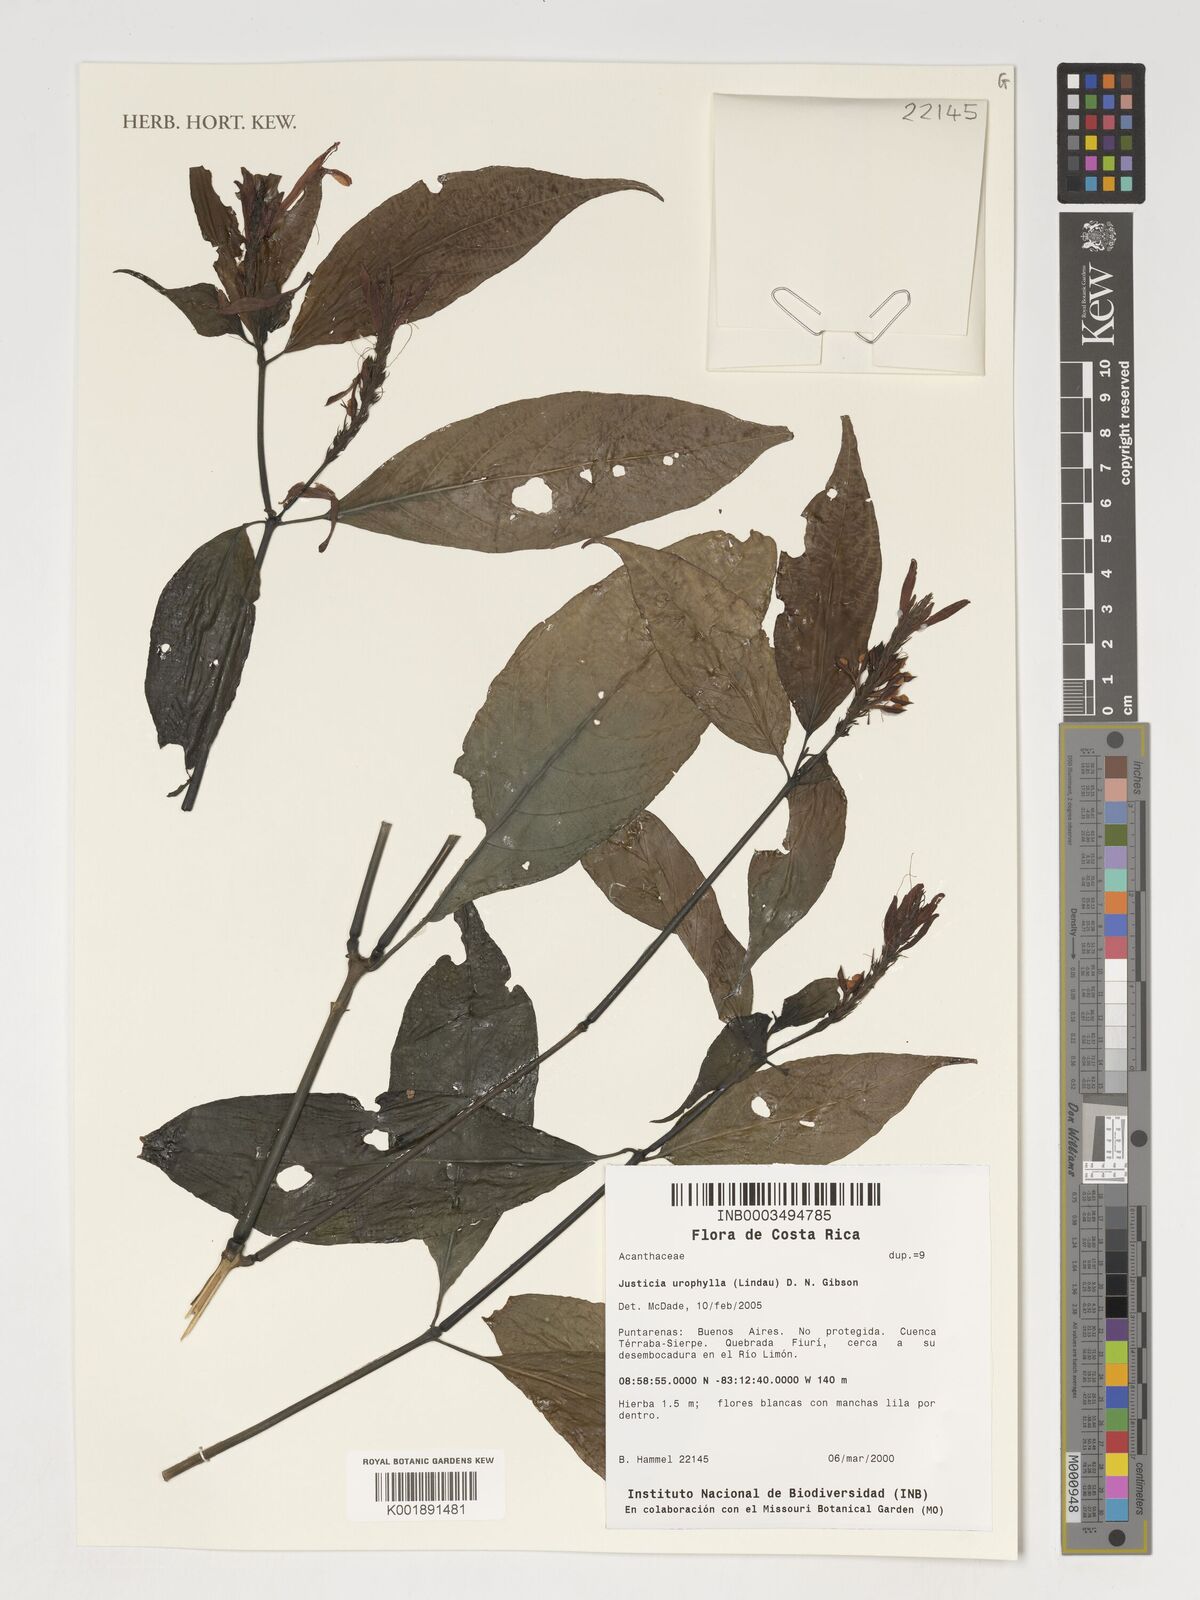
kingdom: Plantae
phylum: Tracheophyta
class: Magnoliopsida
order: Lamiales
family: Acanthaceae
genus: Justicia
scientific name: Justicia urophylla
